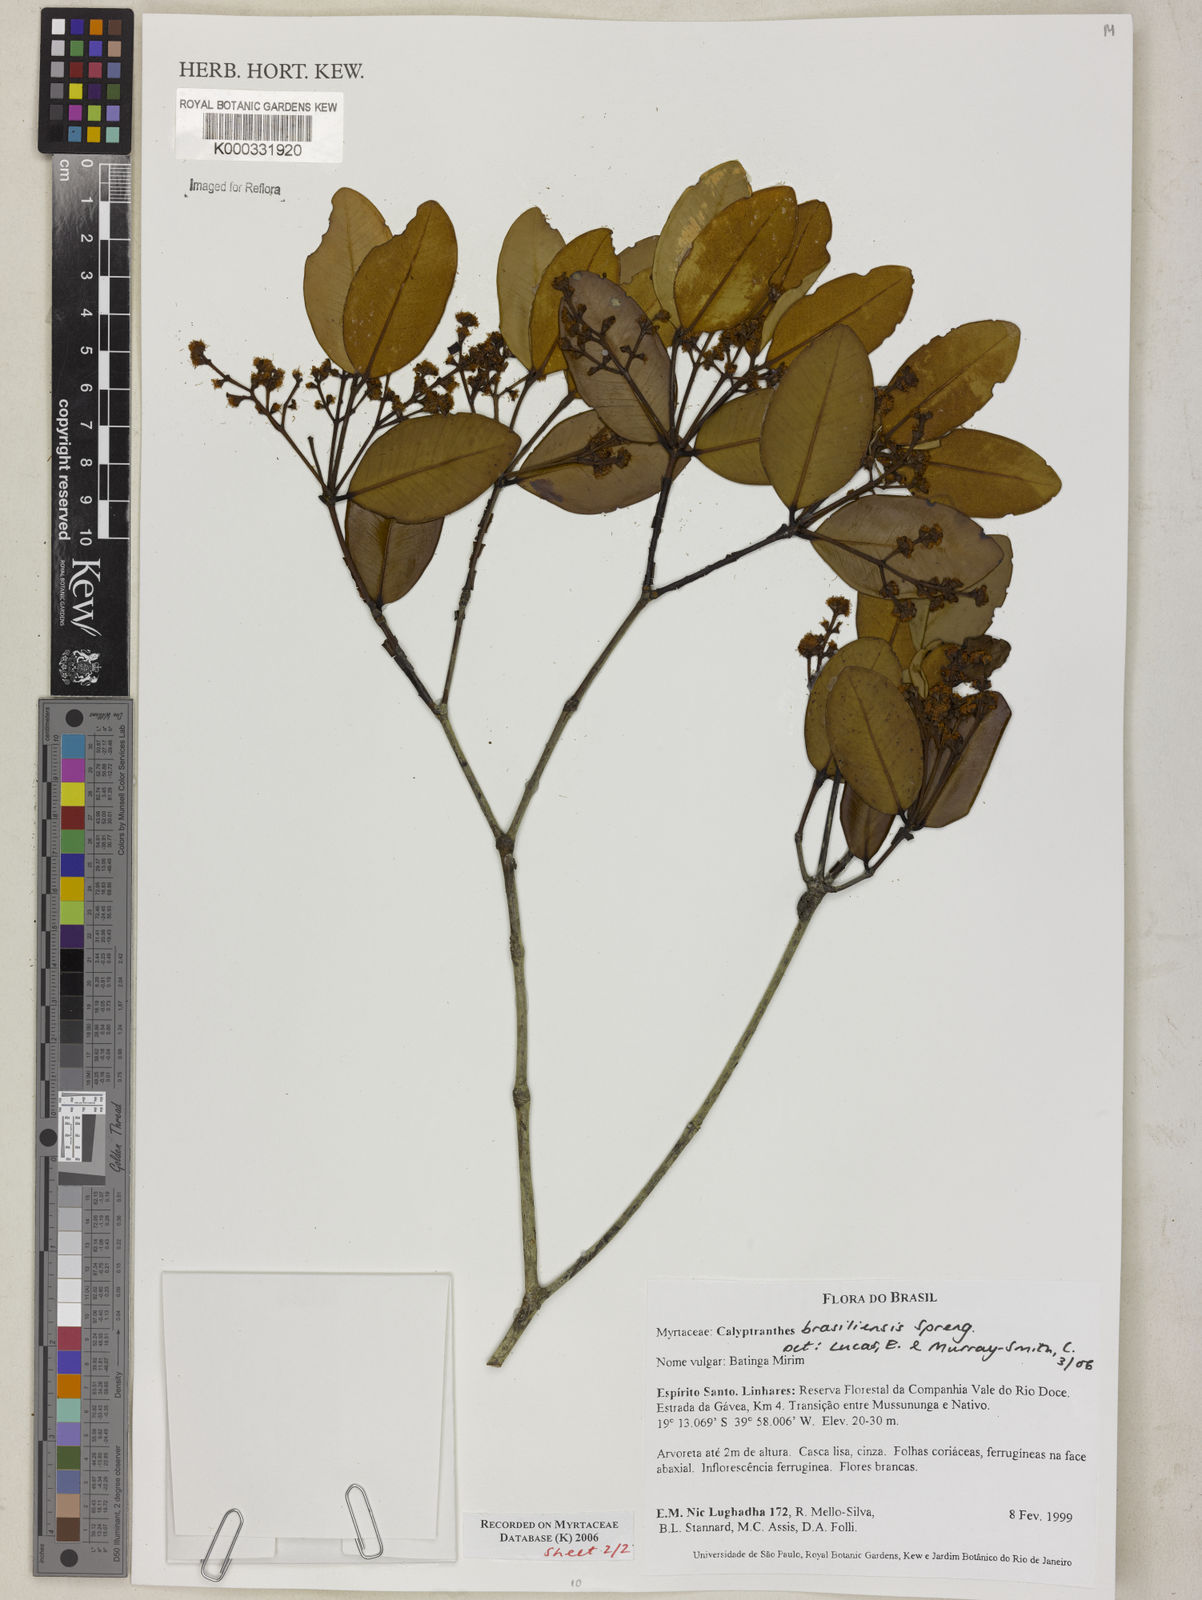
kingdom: Plantae
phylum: Tracheophyta
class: Magnoliopsida
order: Myrtales
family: Myrtaceae
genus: Myrcia
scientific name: Myrcia neobrasiliensis
